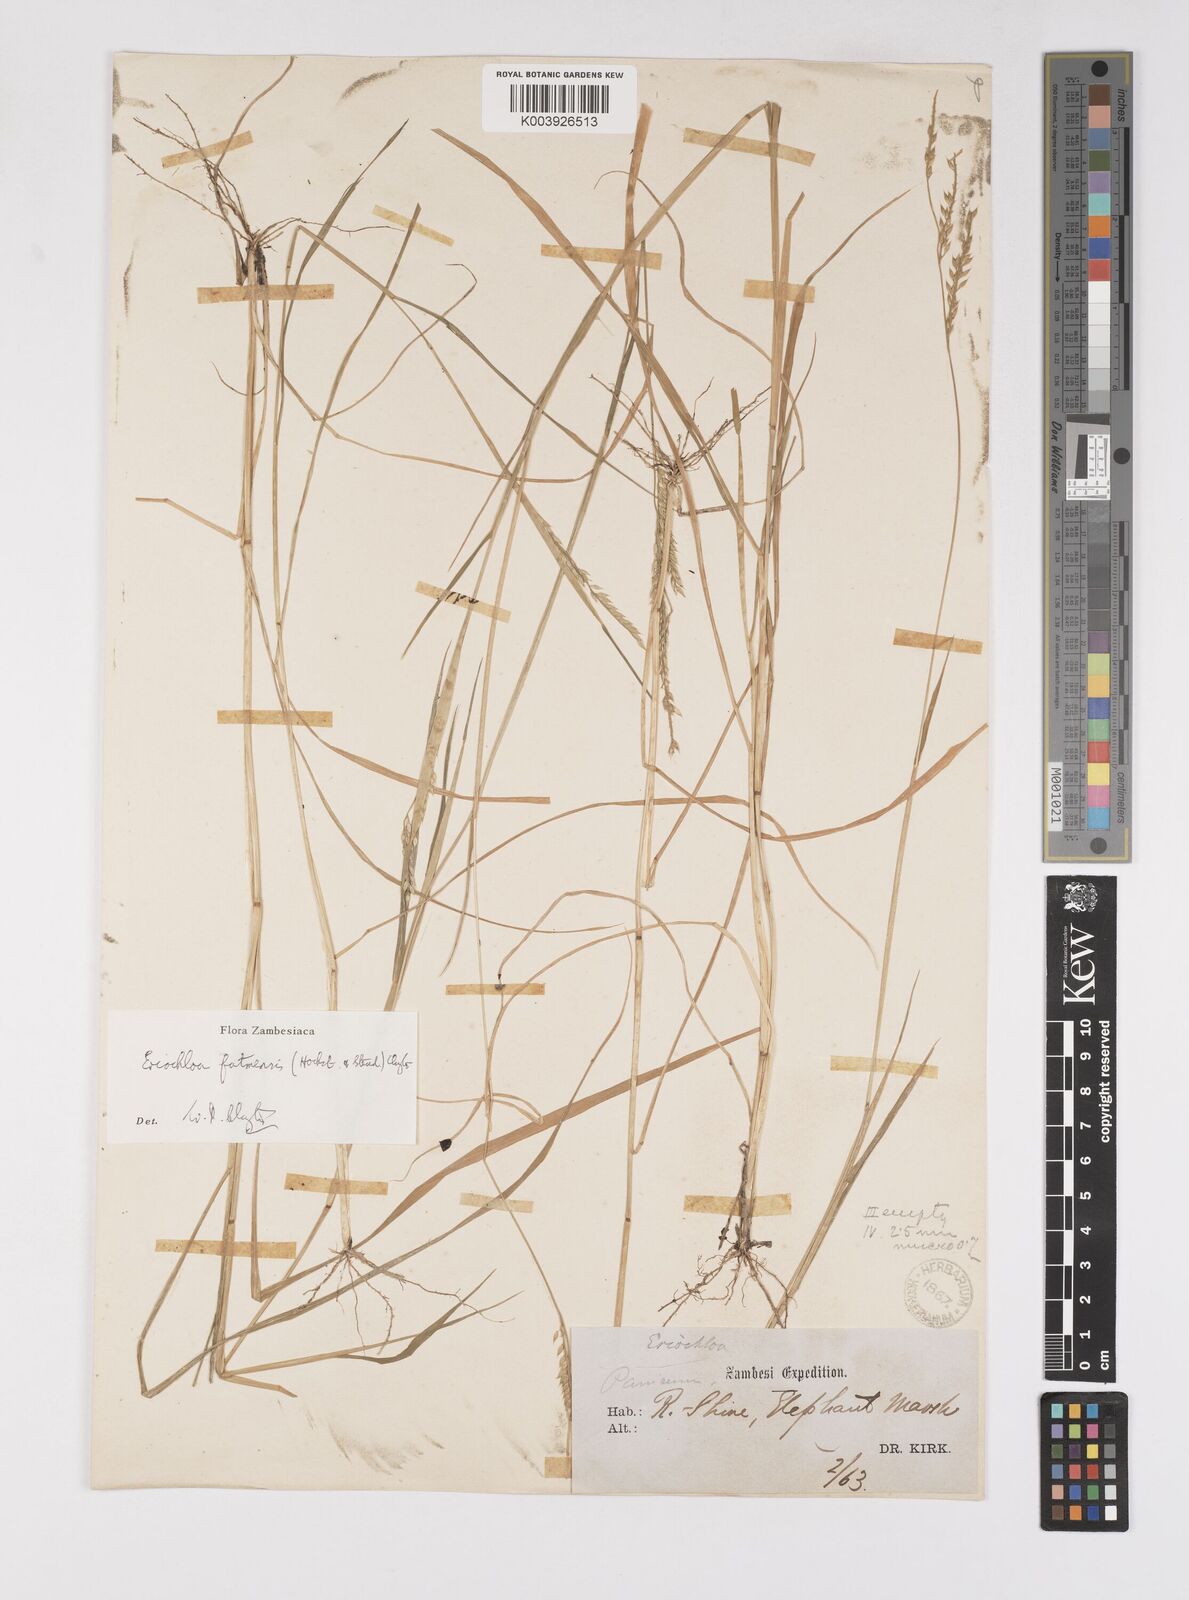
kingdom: Plantae
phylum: Tracheophyta
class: Liliopsida
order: Poales
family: Poaceae
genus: Eriochloa
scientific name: Eriochloa barbatus
